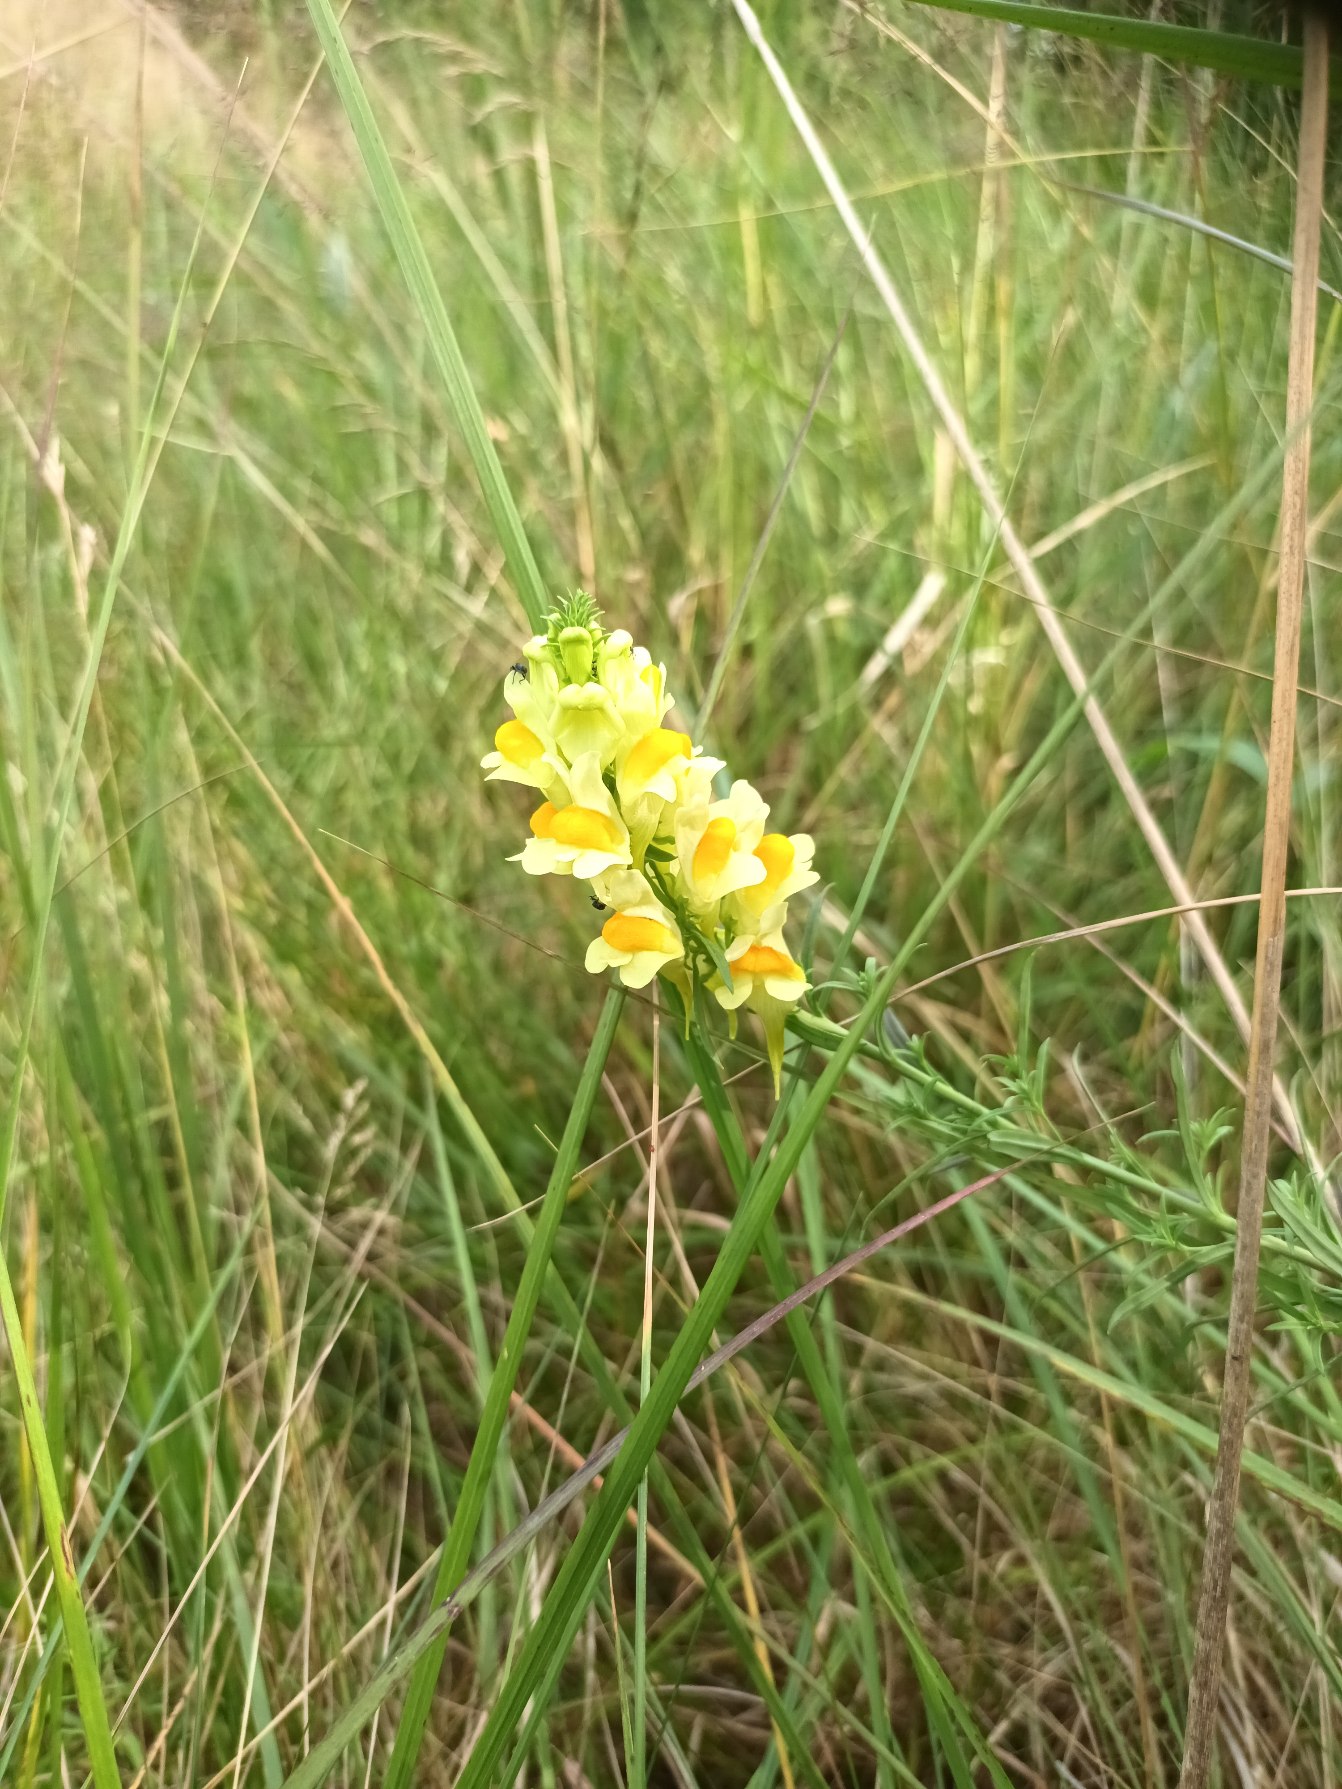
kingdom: Plantae
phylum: Tracheophyta
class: Magnoliopsida
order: Lamiales
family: Plantaginaceae
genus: Linaria
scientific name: Linaria vulgaris
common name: Almindelig torskemund
